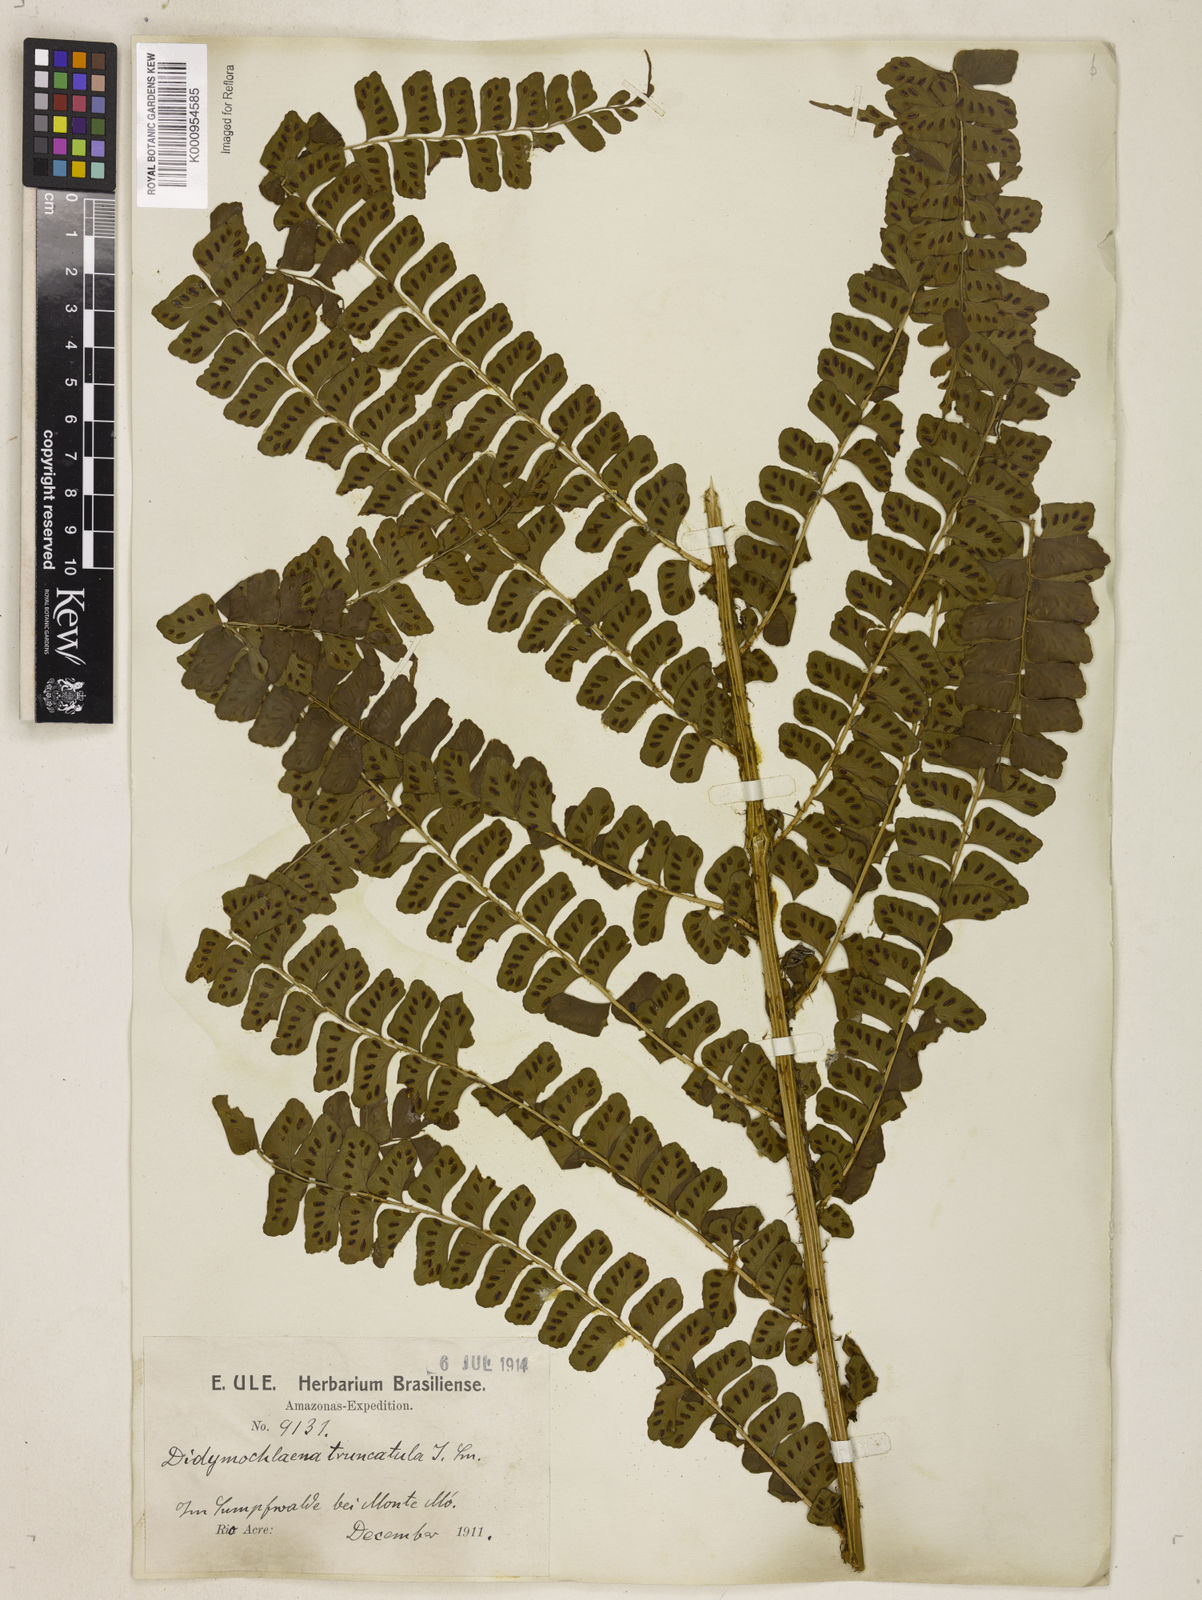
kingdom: Plantae
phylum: Tracheophyta
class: Polypodiopsida
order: Polypodiales
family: Didymochlaenaceae
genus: Didymochlaena
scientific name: Didymochlaena truncatula
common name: Mahogany fern
